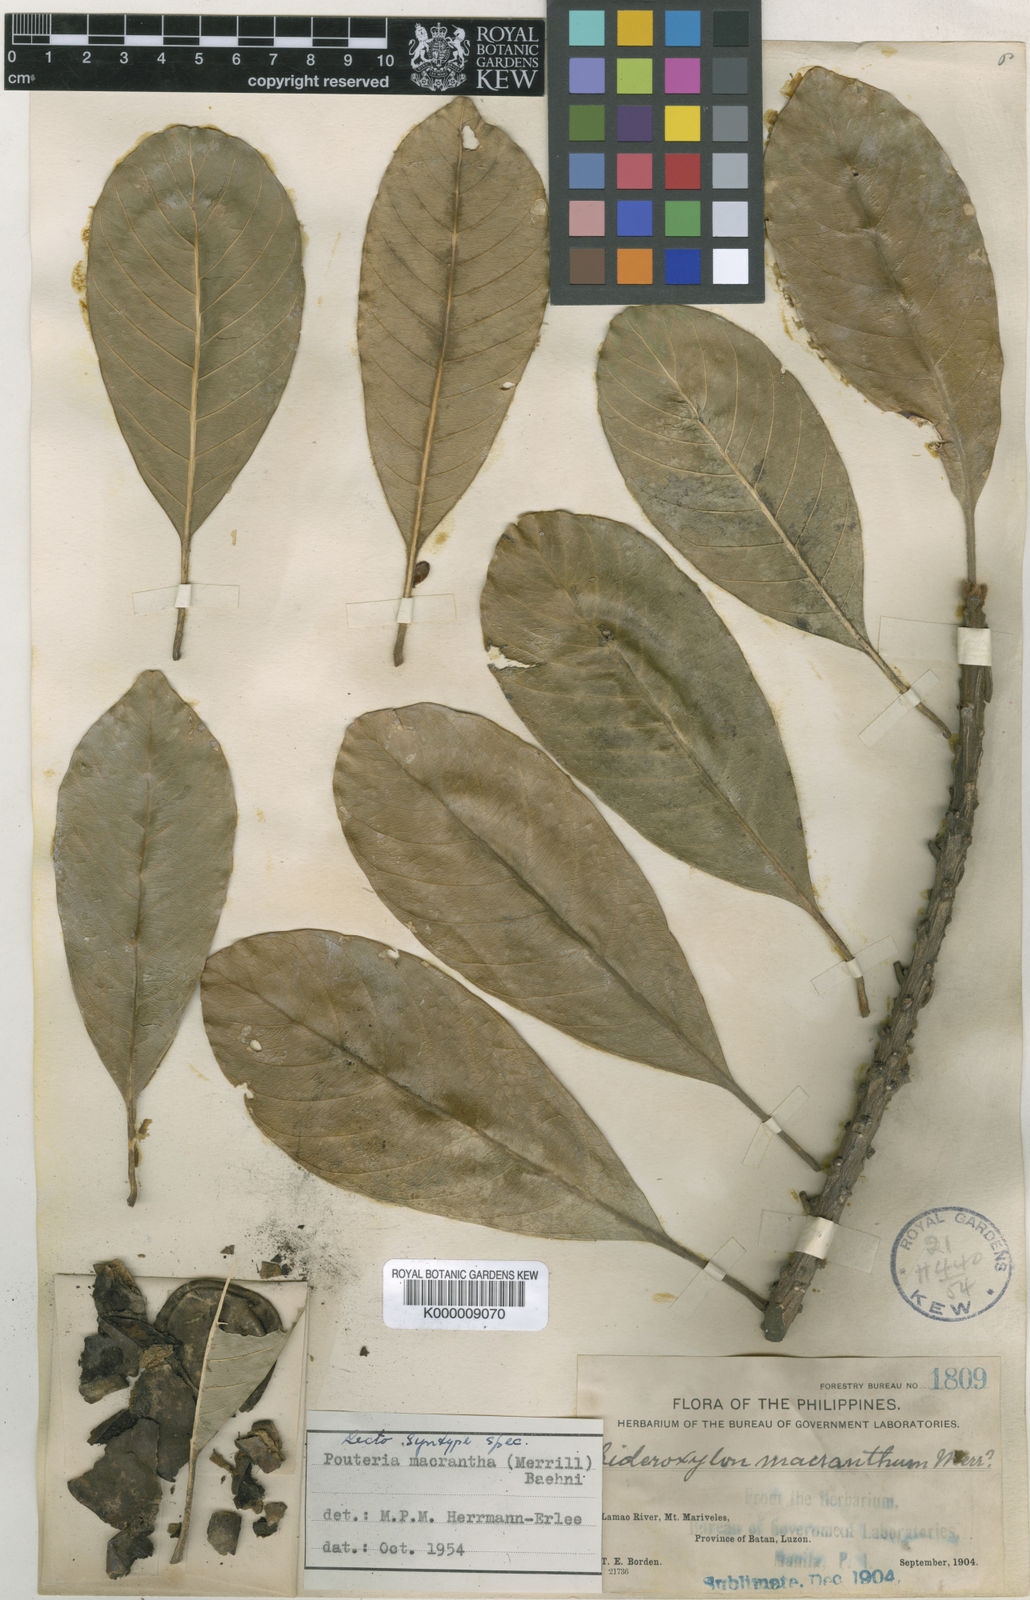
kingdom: Plantae
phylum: Tracheophyta
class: Magnoliopsida
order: Ericales
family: Sapotaceae
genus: Planchonella
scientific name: Planchonella macrantha
